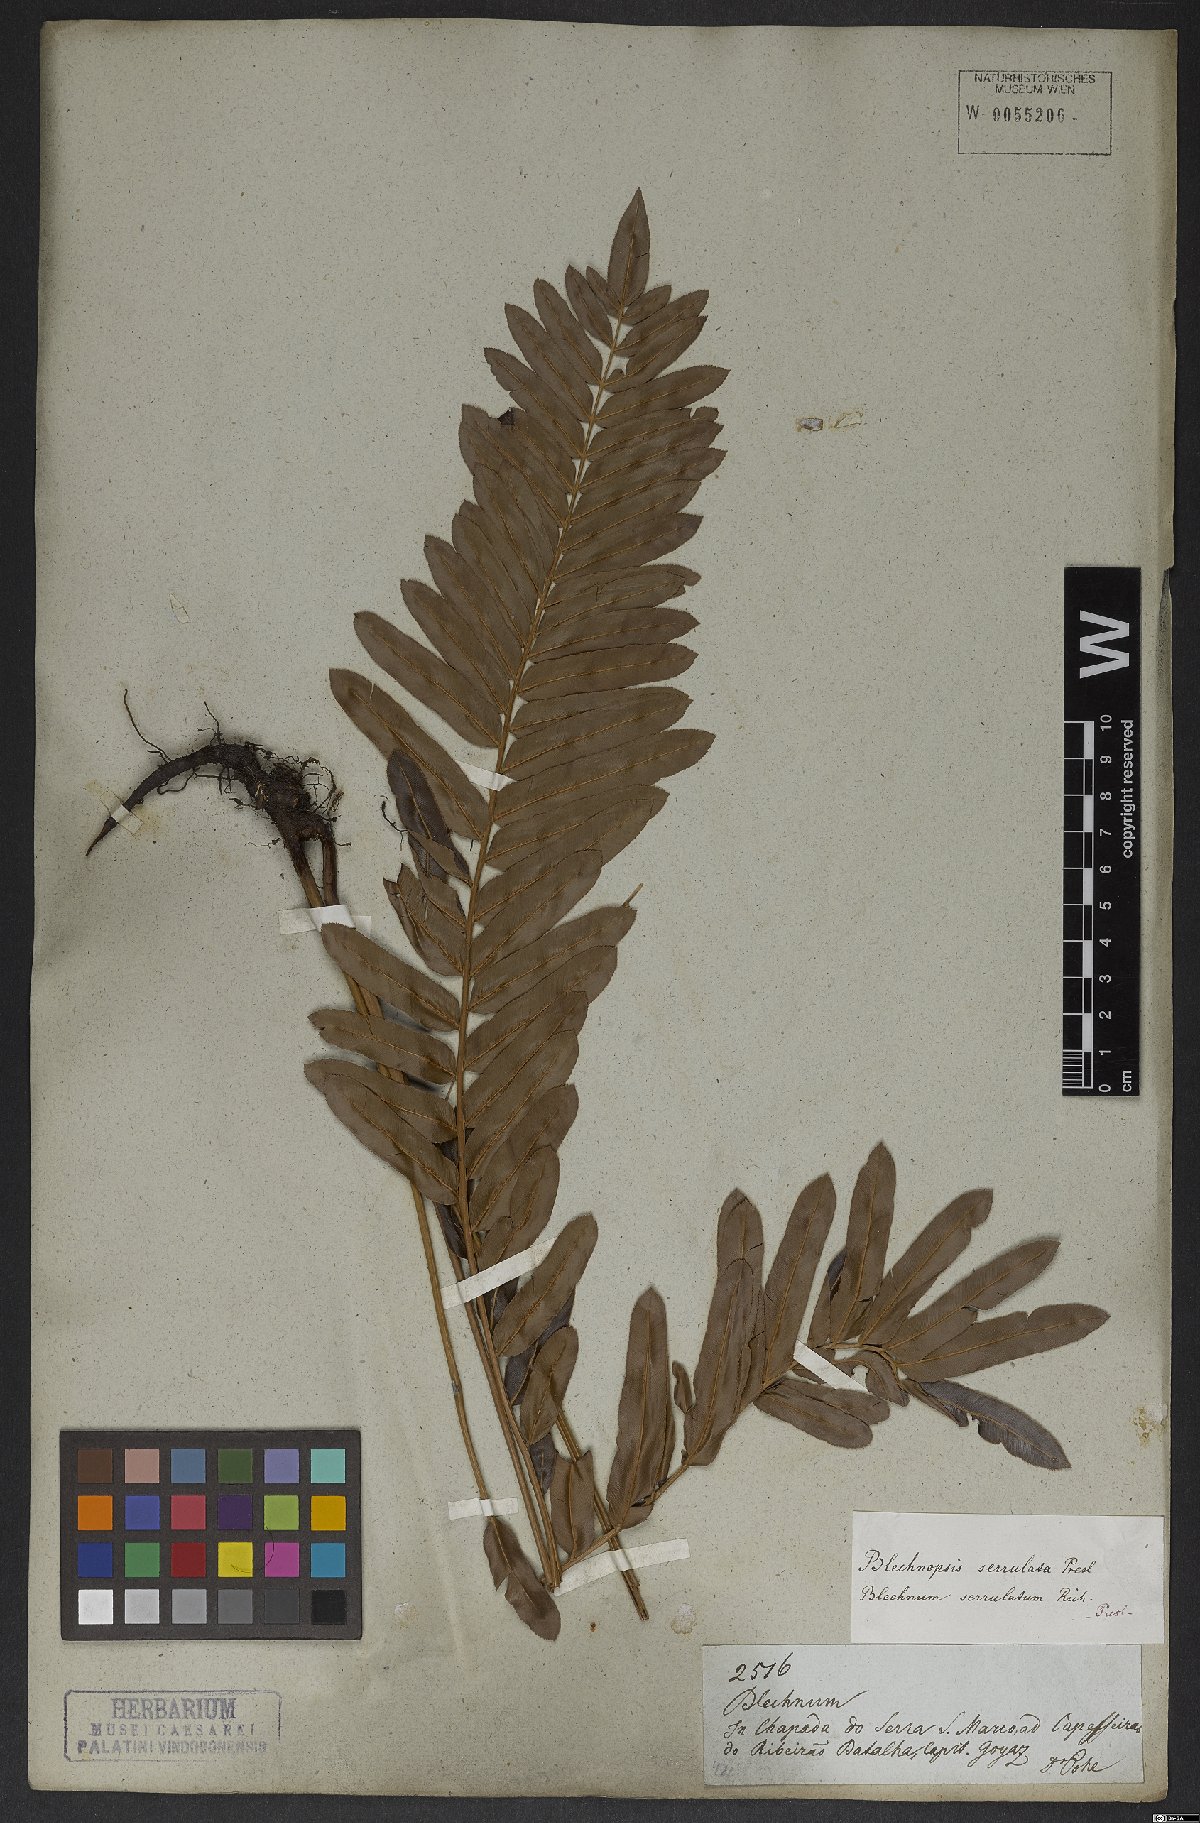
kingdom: Plantae
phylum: Tracheophyta
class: Polypodiopsida
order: Polypodiales
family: Blechnaceae
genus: Telmatoblechnum
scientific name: Telmatoblechnum serrulatum
